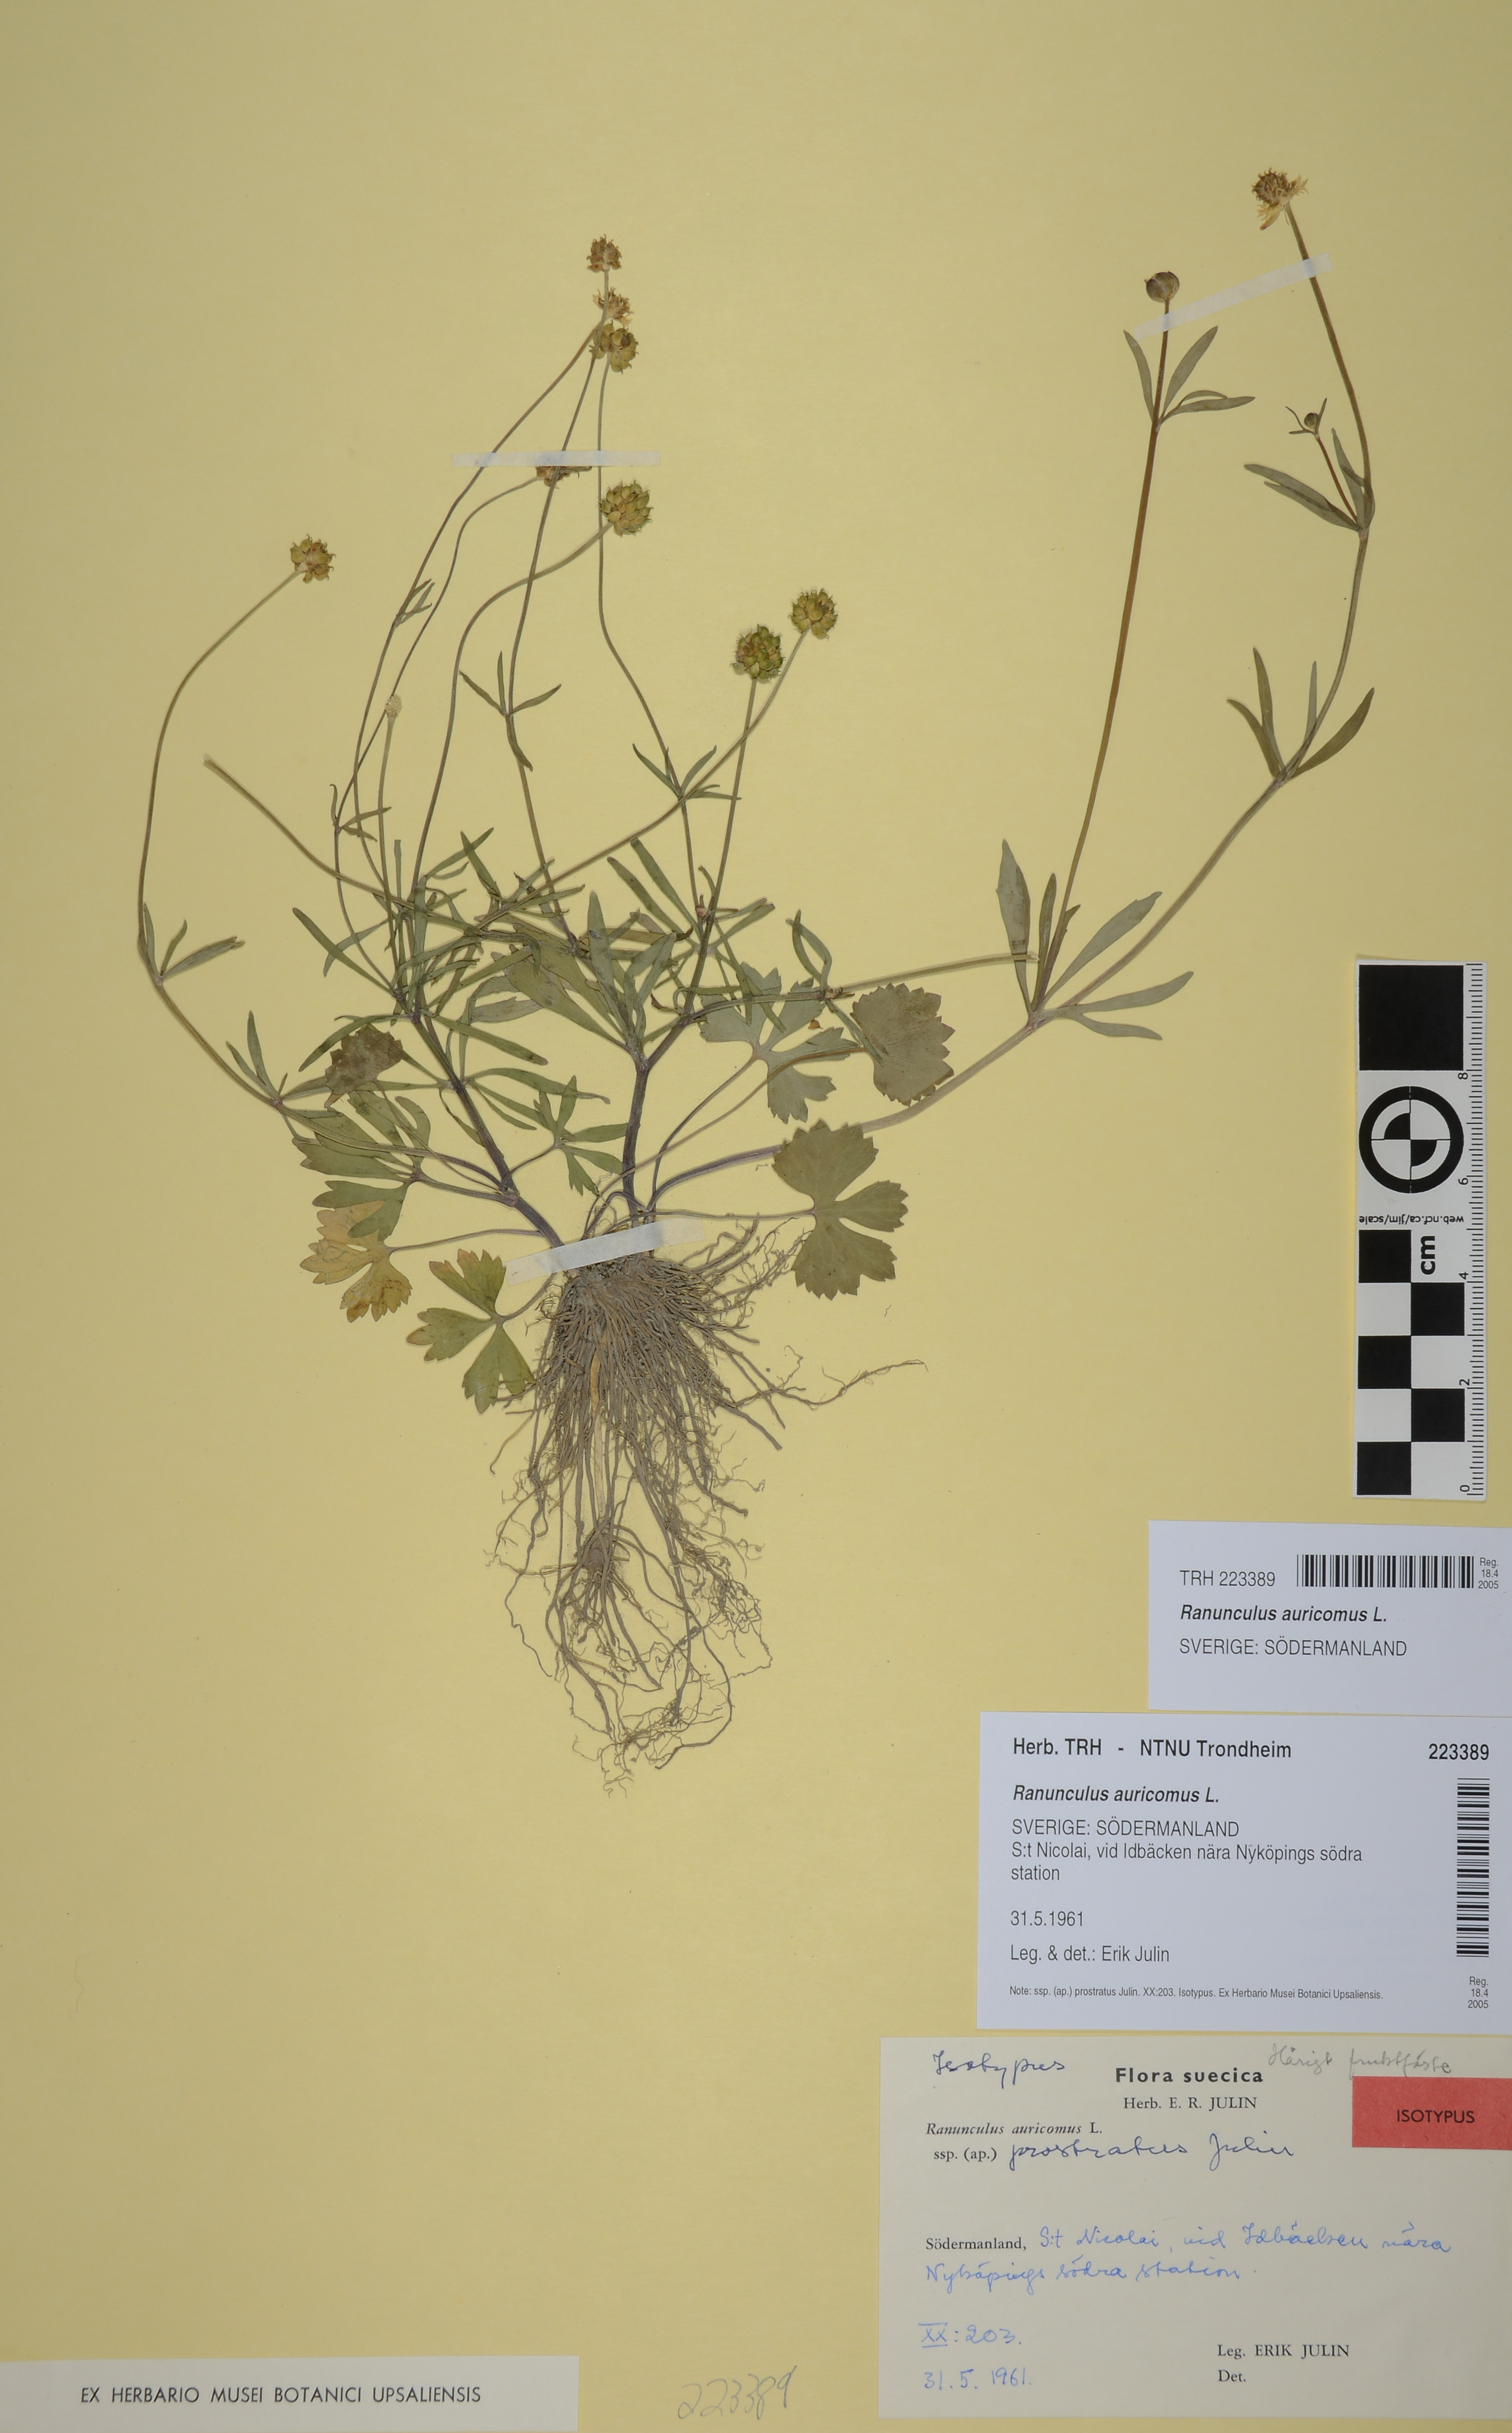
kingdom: Plantae
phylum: Tracheophyta
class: Magnoliopsida
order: Ranunculales
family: Ranunculaceae
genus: Ranunculus
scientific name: Ranunculus auricomus
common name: Goldilocks buttercup
